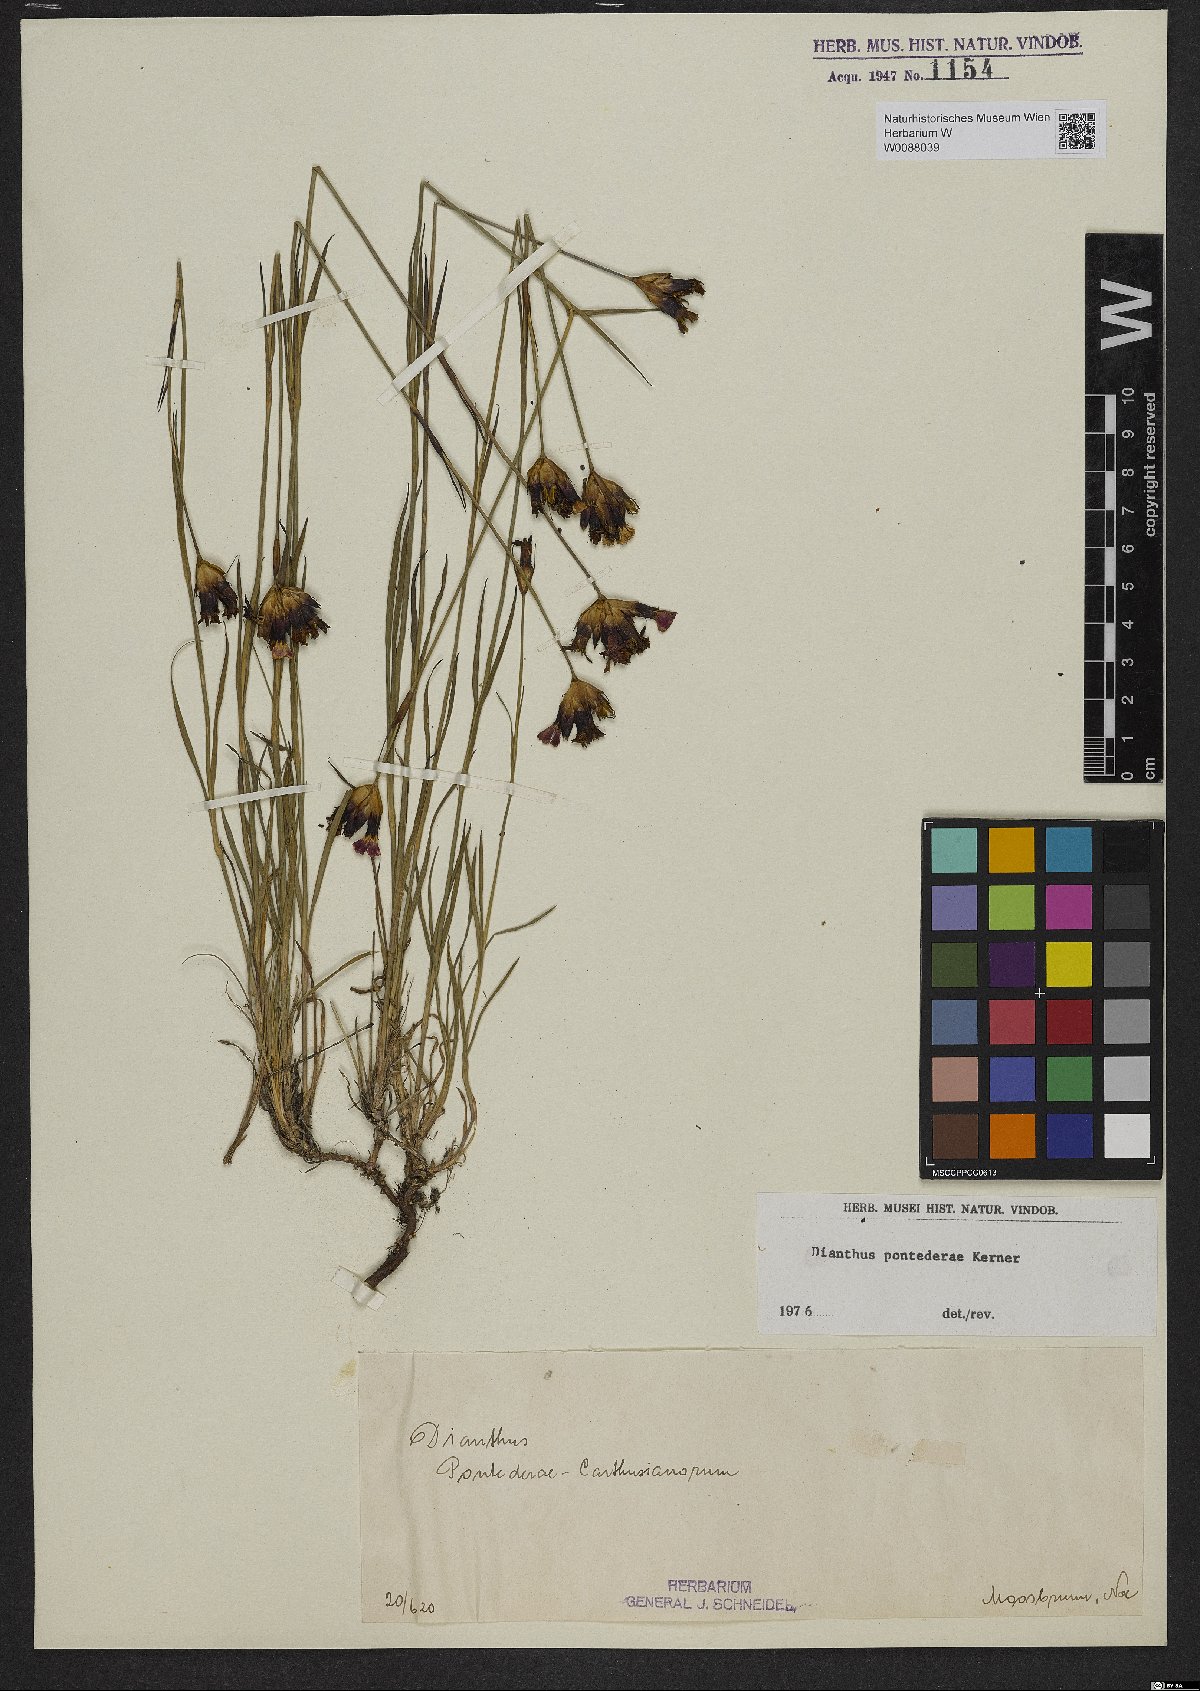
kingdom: Plantae
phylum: Tracheophyta
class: Magnoliopsida
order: Caryophyllales
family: Caryophyllaceae
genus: Dianthus
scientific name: Dianthus pontederae
